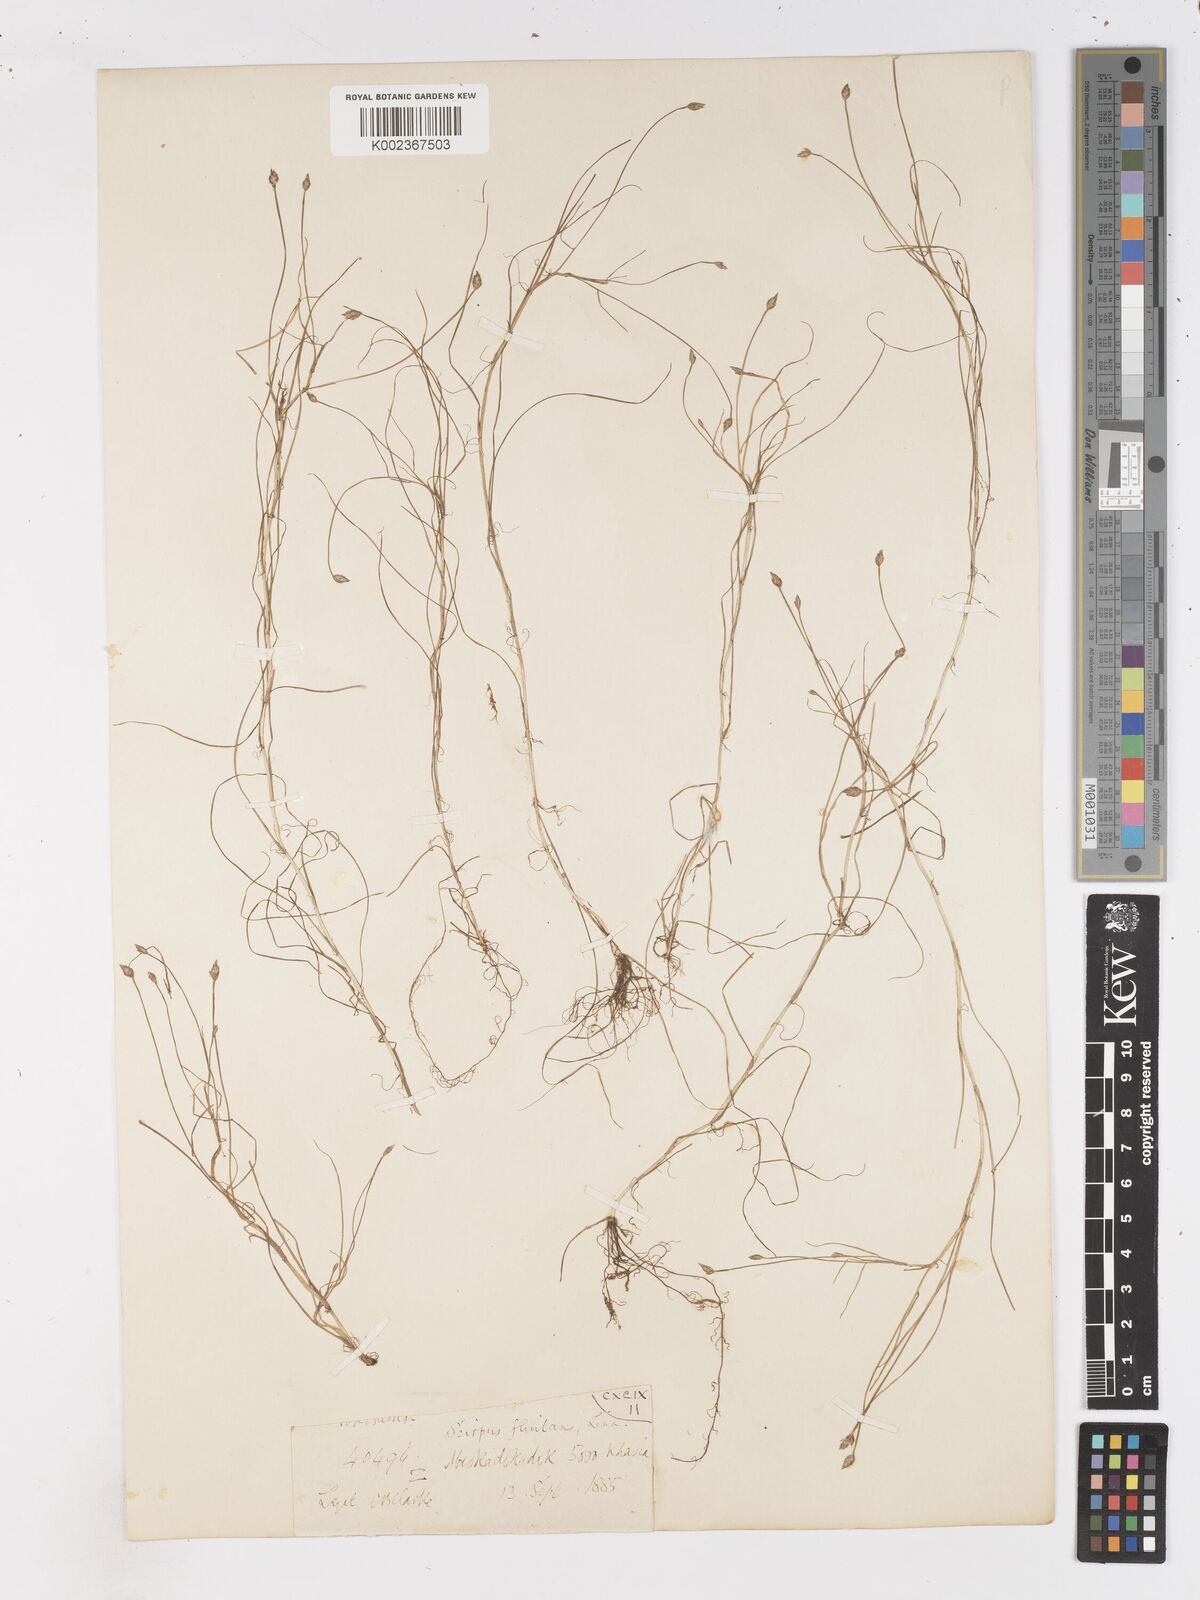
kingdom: Plantae
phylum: Tracheophyta
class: Liliopsida
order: Poales
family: Cyperaceae
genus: Isolepis
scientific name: Isolepis fluitans
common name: Floating club-rush
